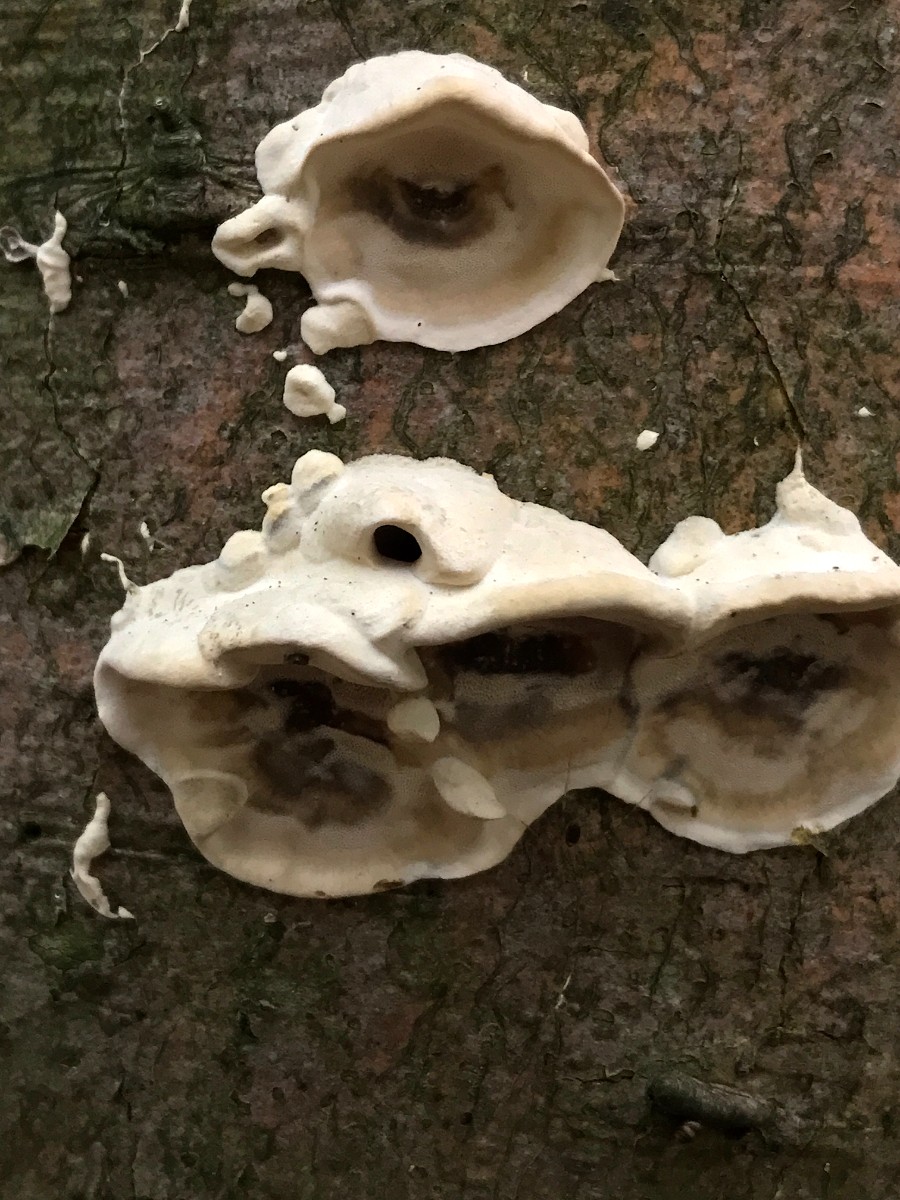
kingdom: Fungi
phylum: Basidiomycota
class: Agaricomycetes
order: Polyporales
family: Phanerochaetaceae
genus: Bjerkandera
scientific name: Bjerkandera adusta
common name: sveden sodporesvamp
